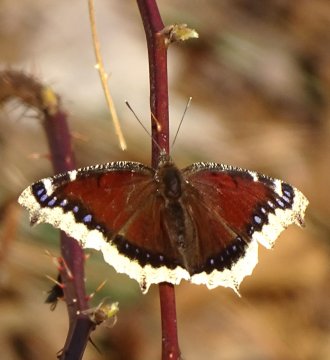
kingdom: Animalia
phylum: Arthropoda
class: Insecta
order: Lepidoptera
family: Nymphalidae
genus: Nymphalis
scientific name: Nymphalis antiopa
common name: Mourning Cloak
